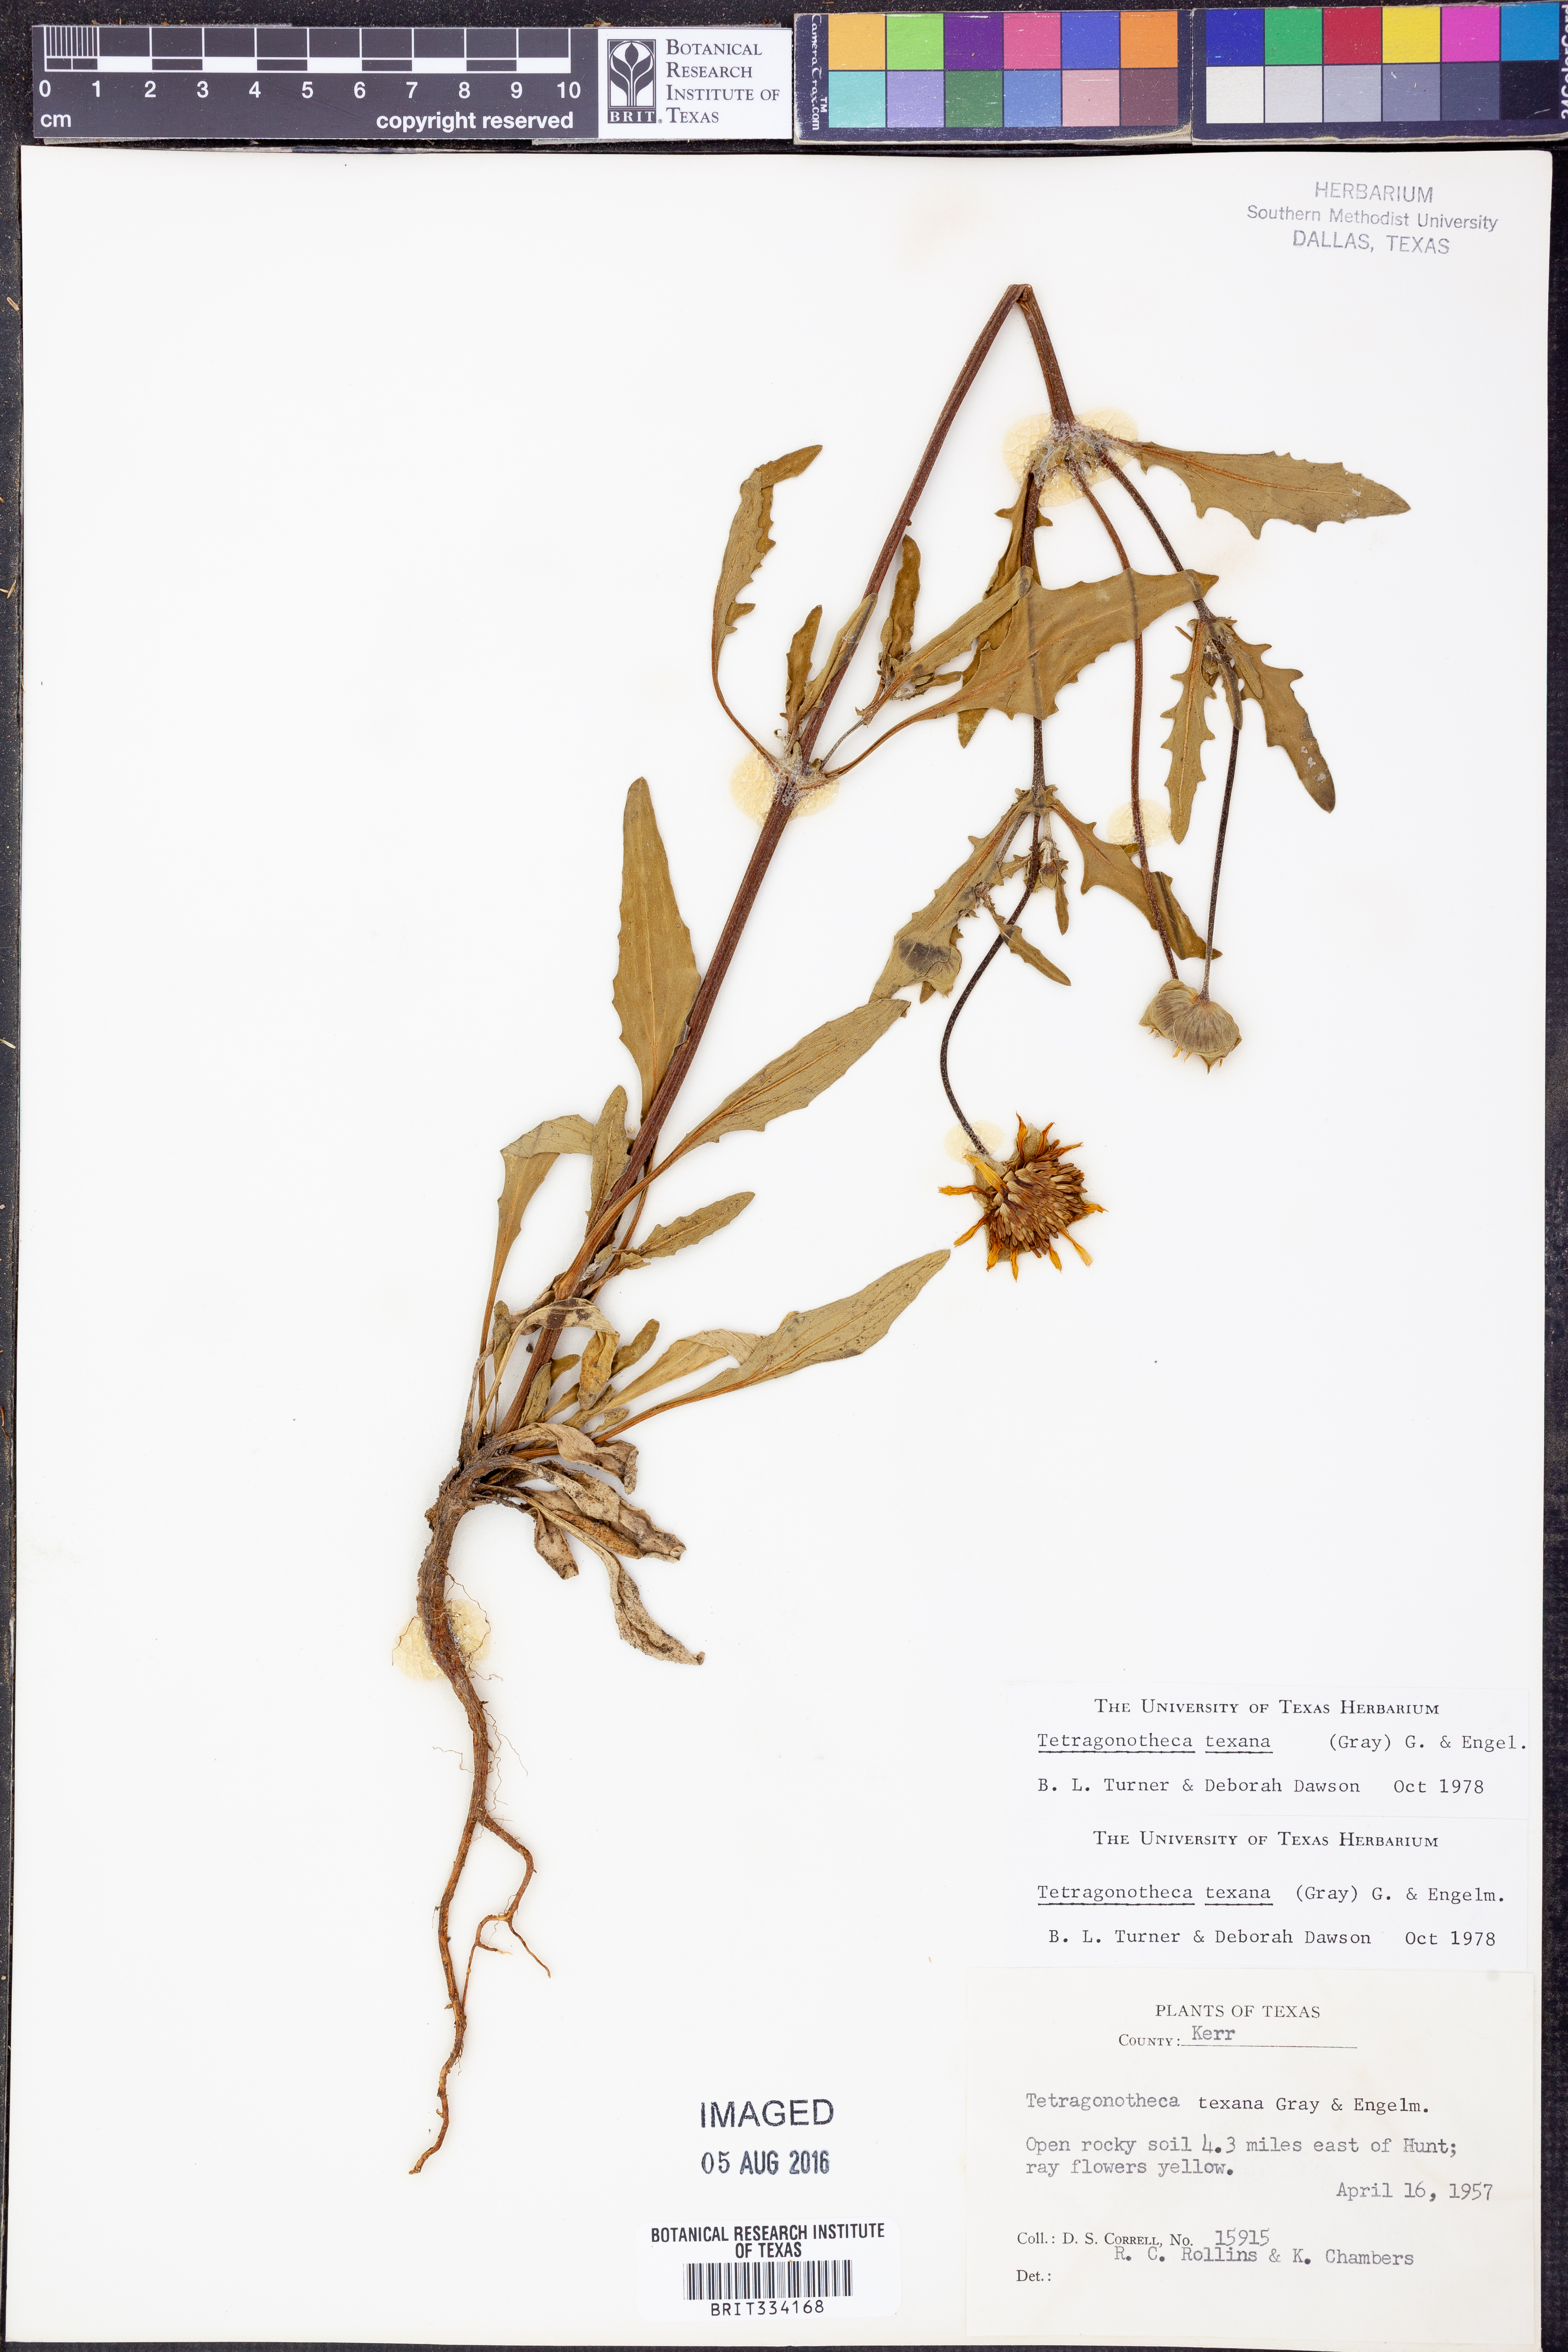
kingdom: Plantae
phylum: Tracheophyta
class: Magnoliopsida
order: Asterales
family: Asteraceae
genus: Tetragonotheca
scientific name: Tetragonotheca texana
